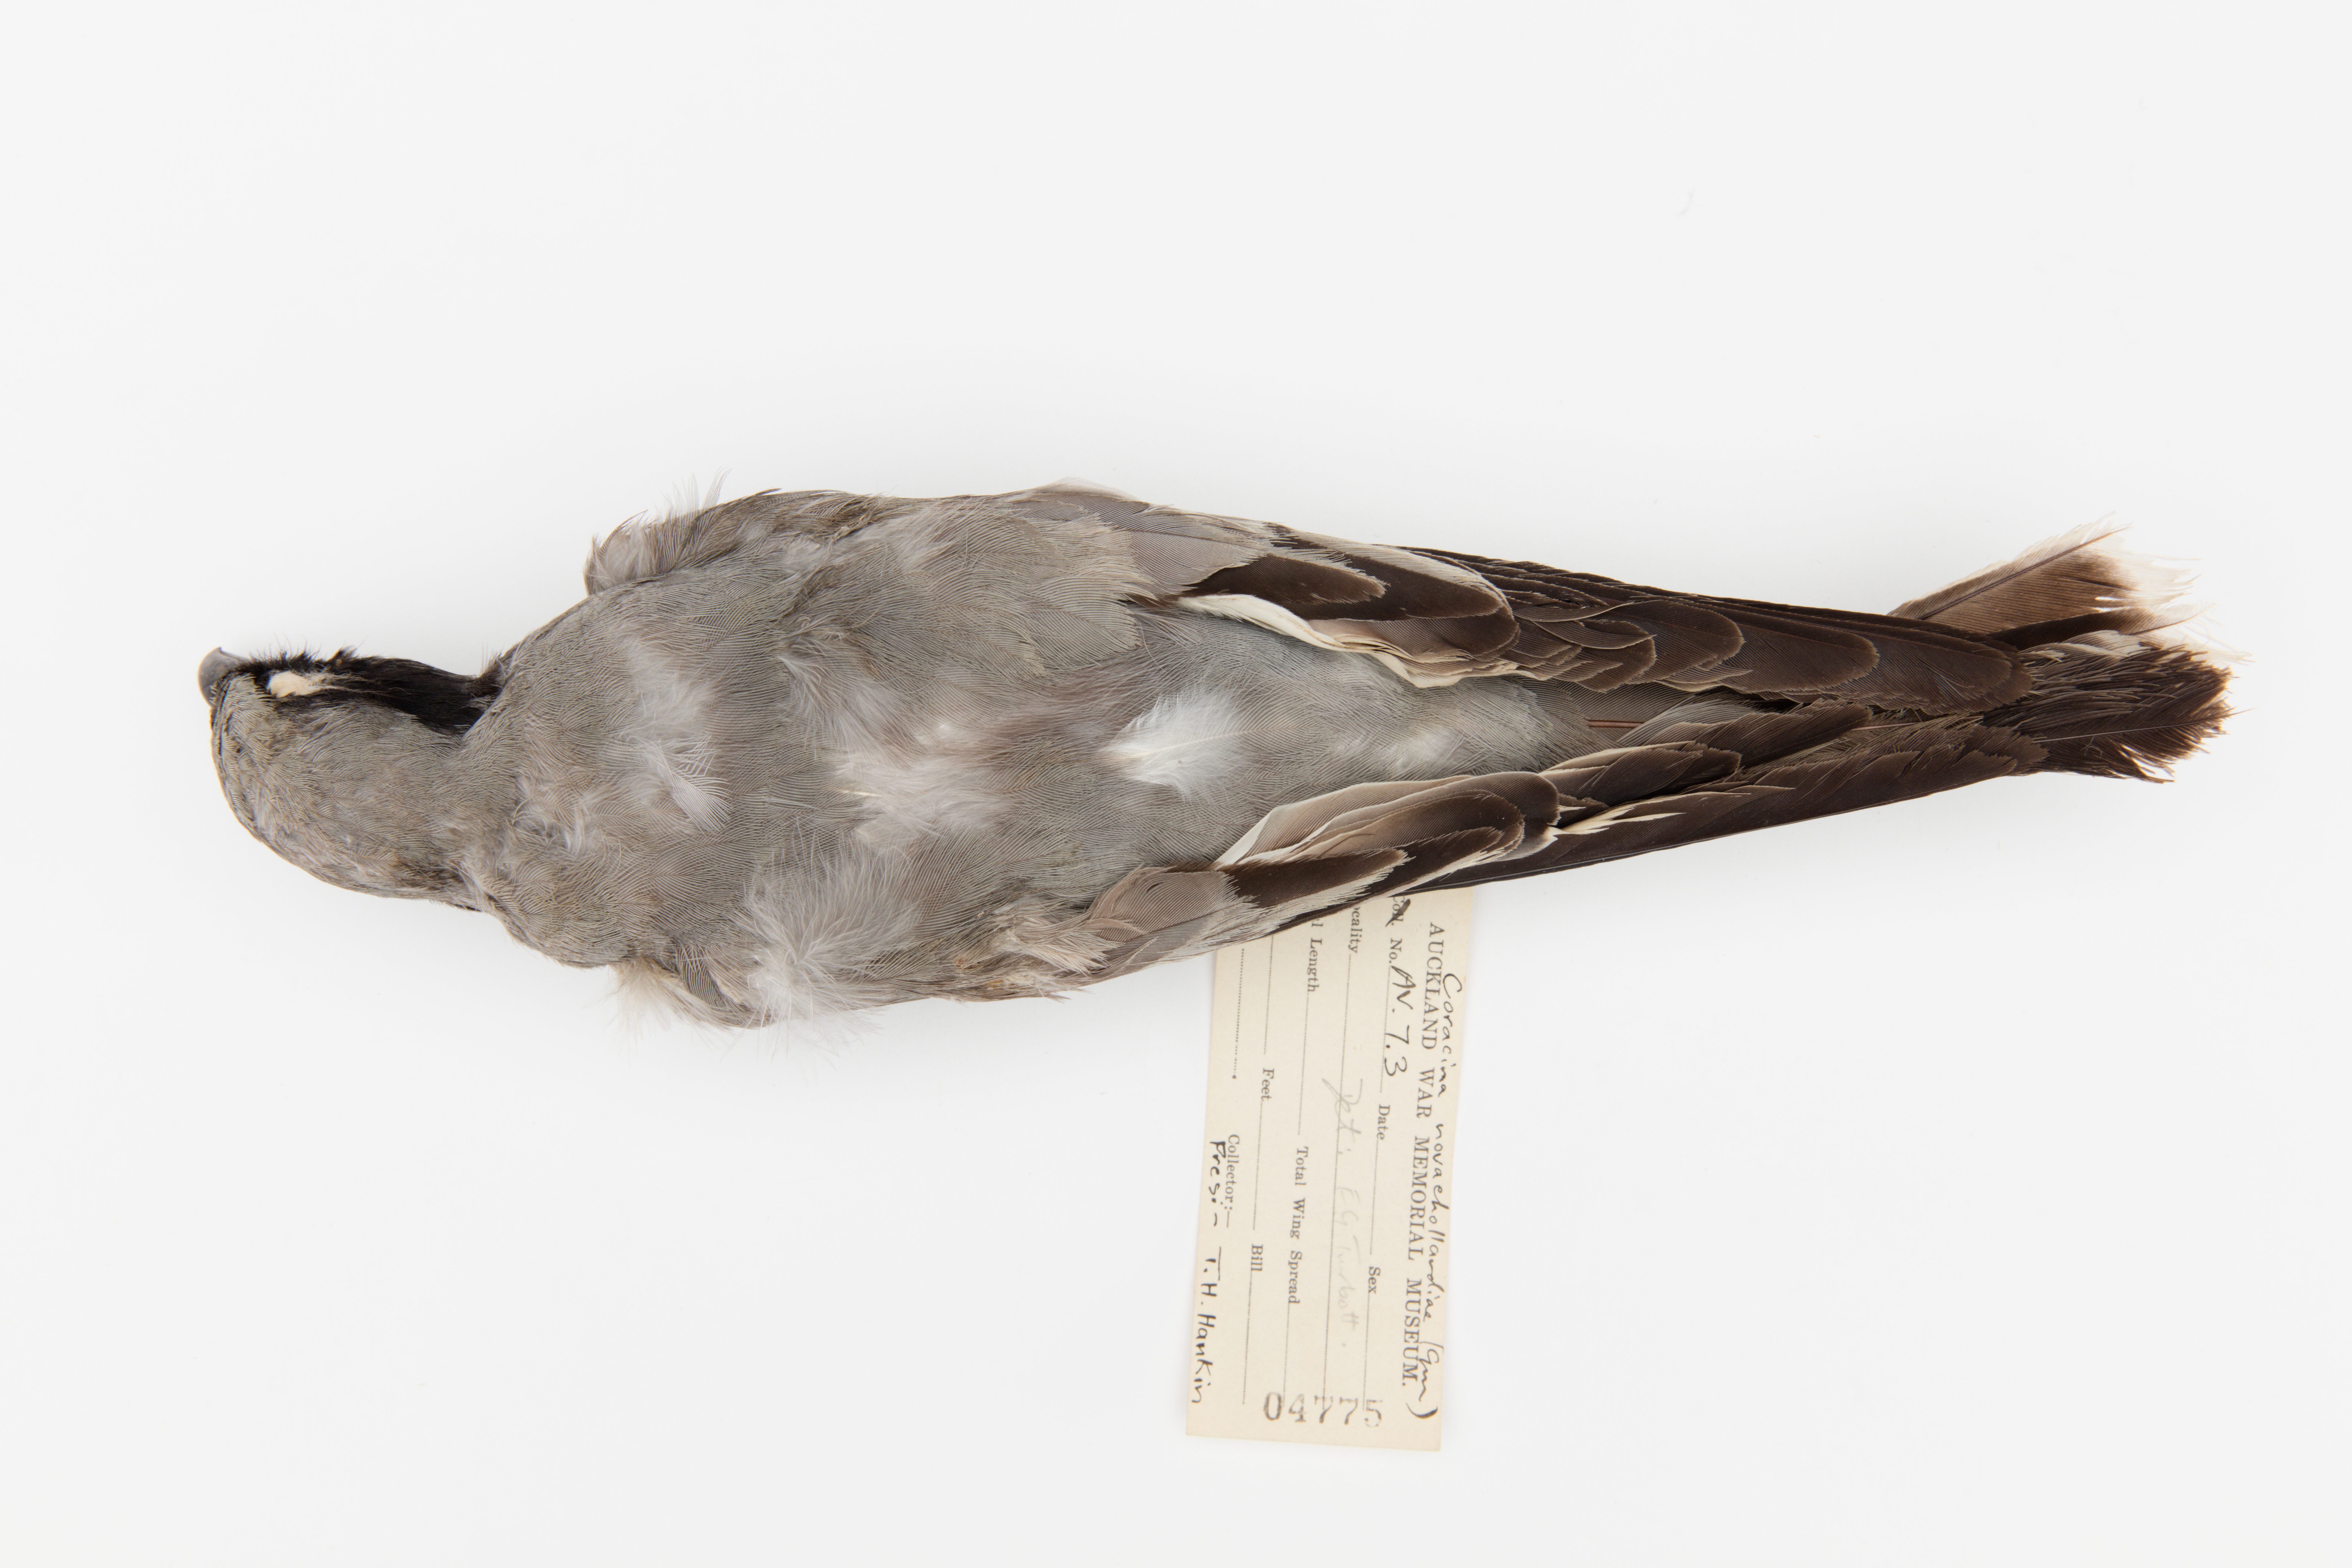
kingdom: Animalia
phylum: Chordata
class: Aves
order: Passeriformes
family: Campephagidae
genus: Coracina
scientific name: Coracina novaehollandiae
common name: Black-faced cuckooshrike
